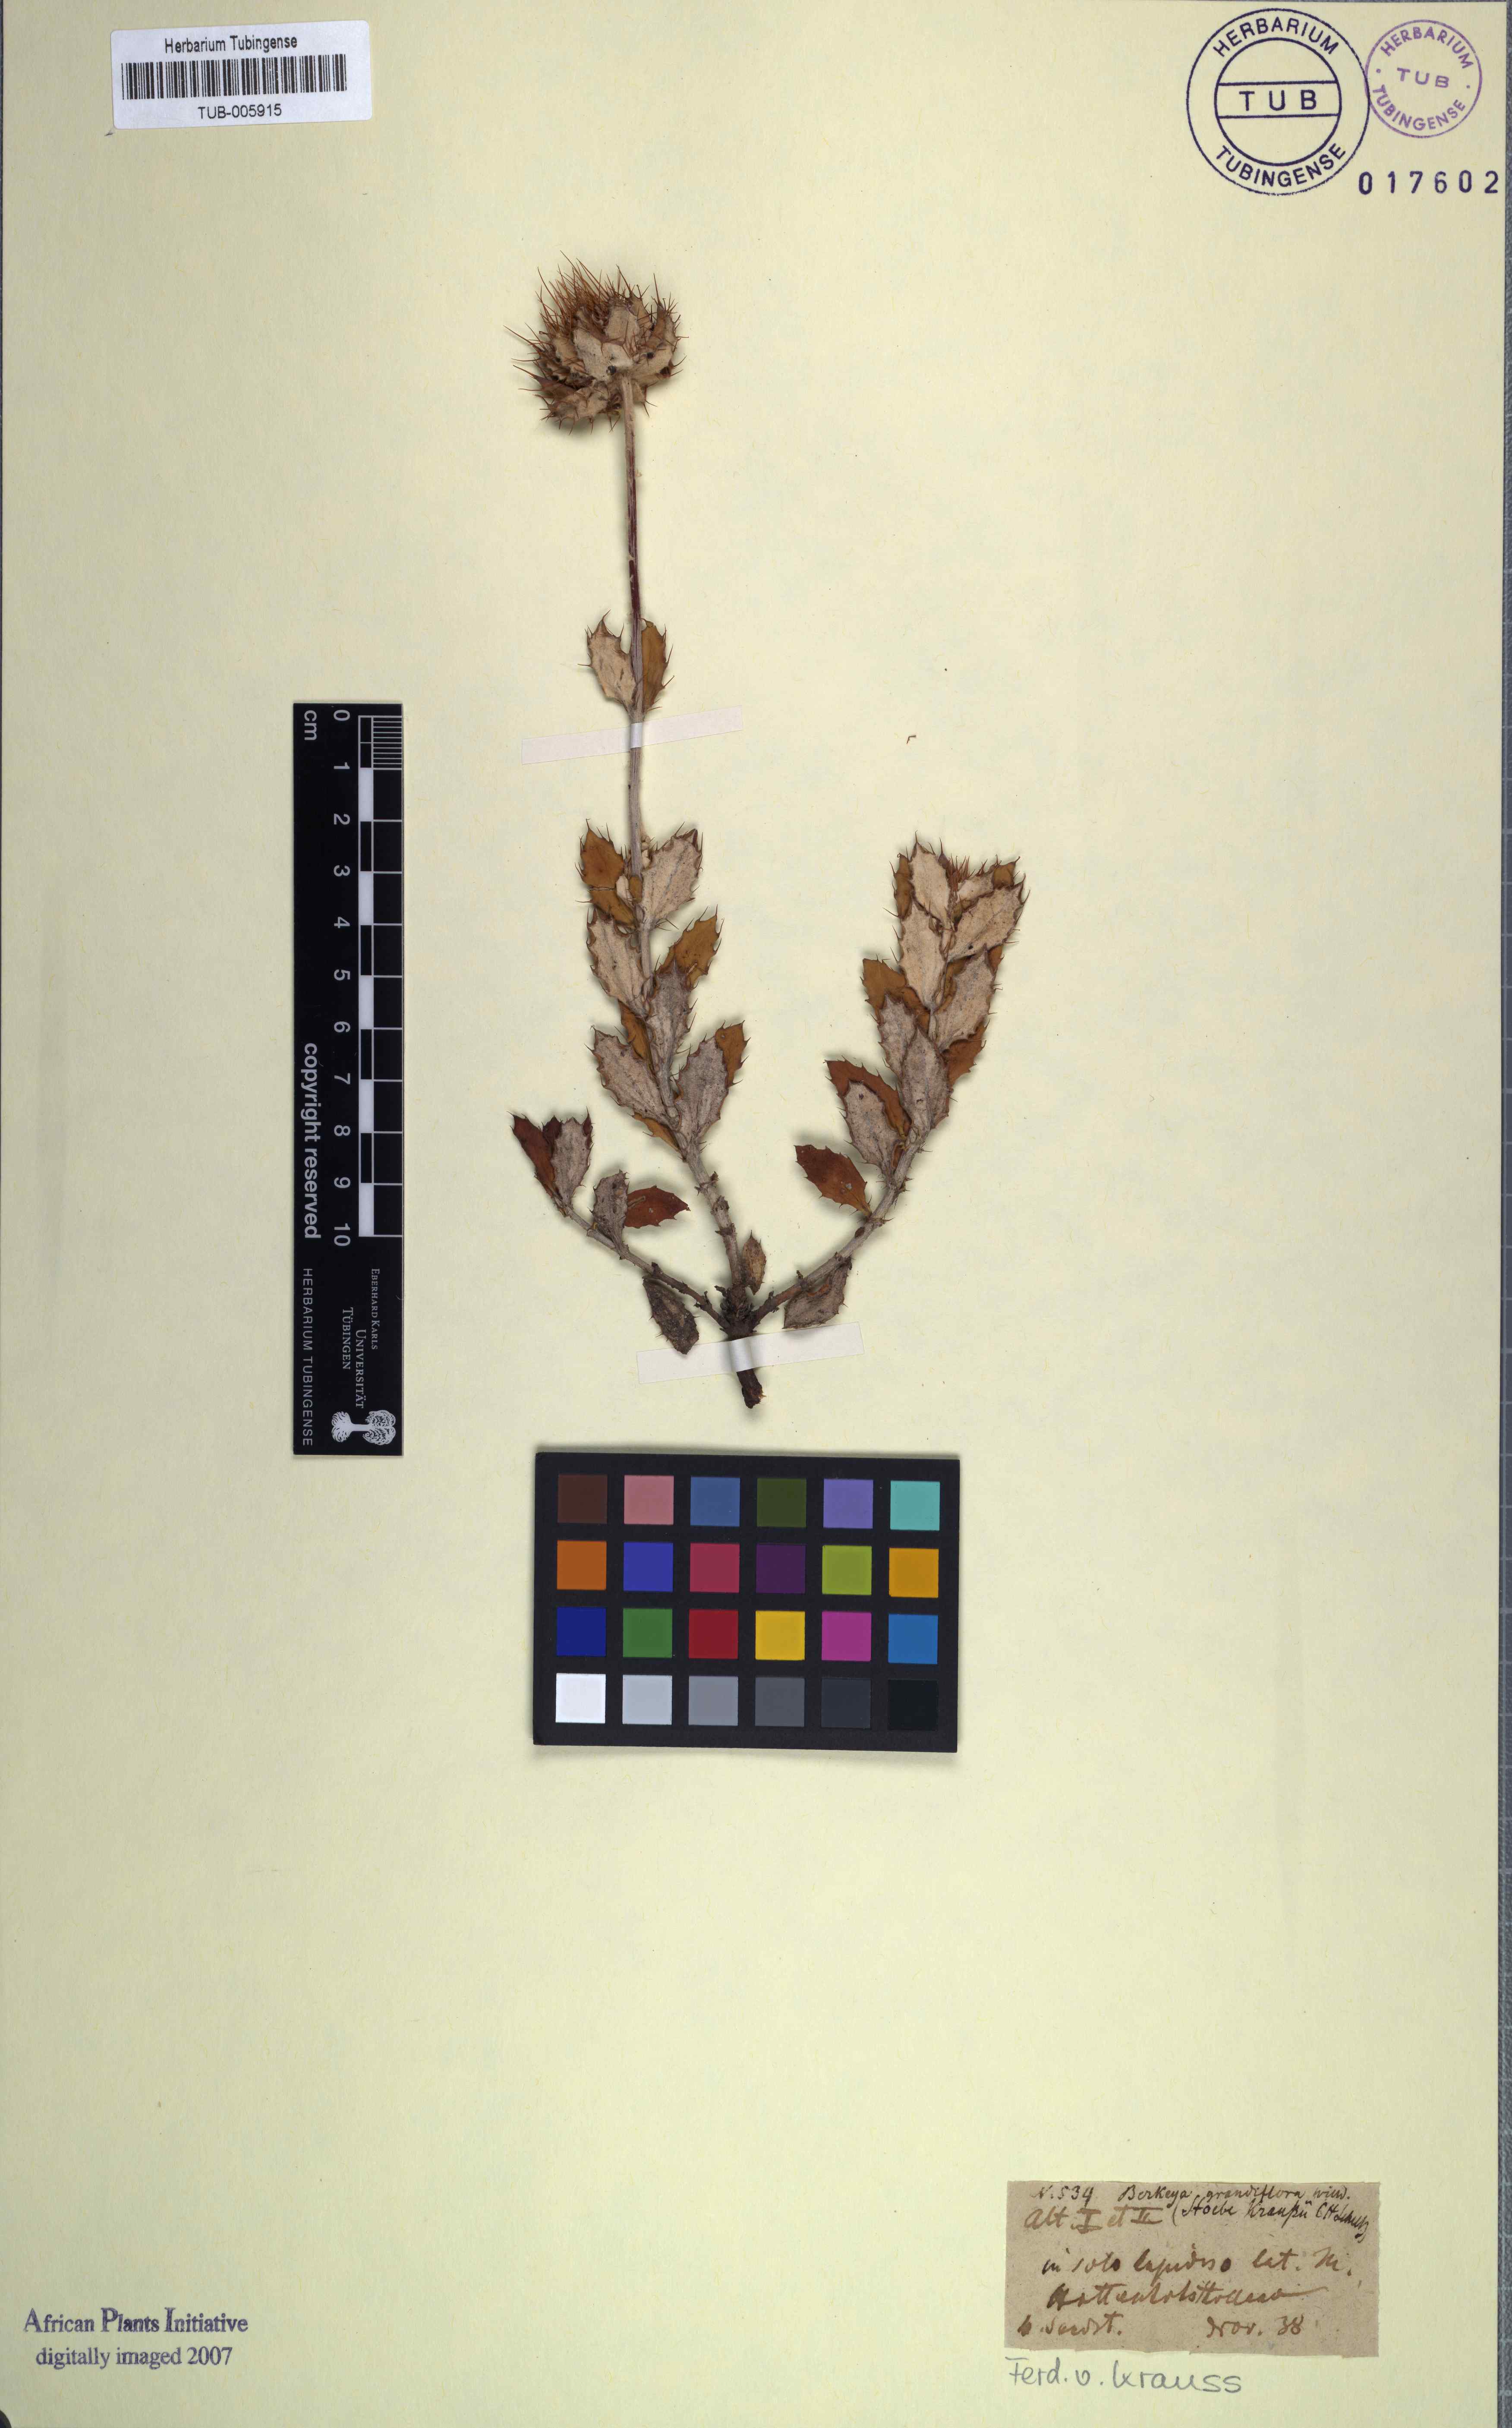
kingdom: Plantae
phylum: Tracheophyta
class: Magnoliopsida
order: Asterales
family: Asteraceae
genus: Berkheya
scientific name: Berkheya barbata
